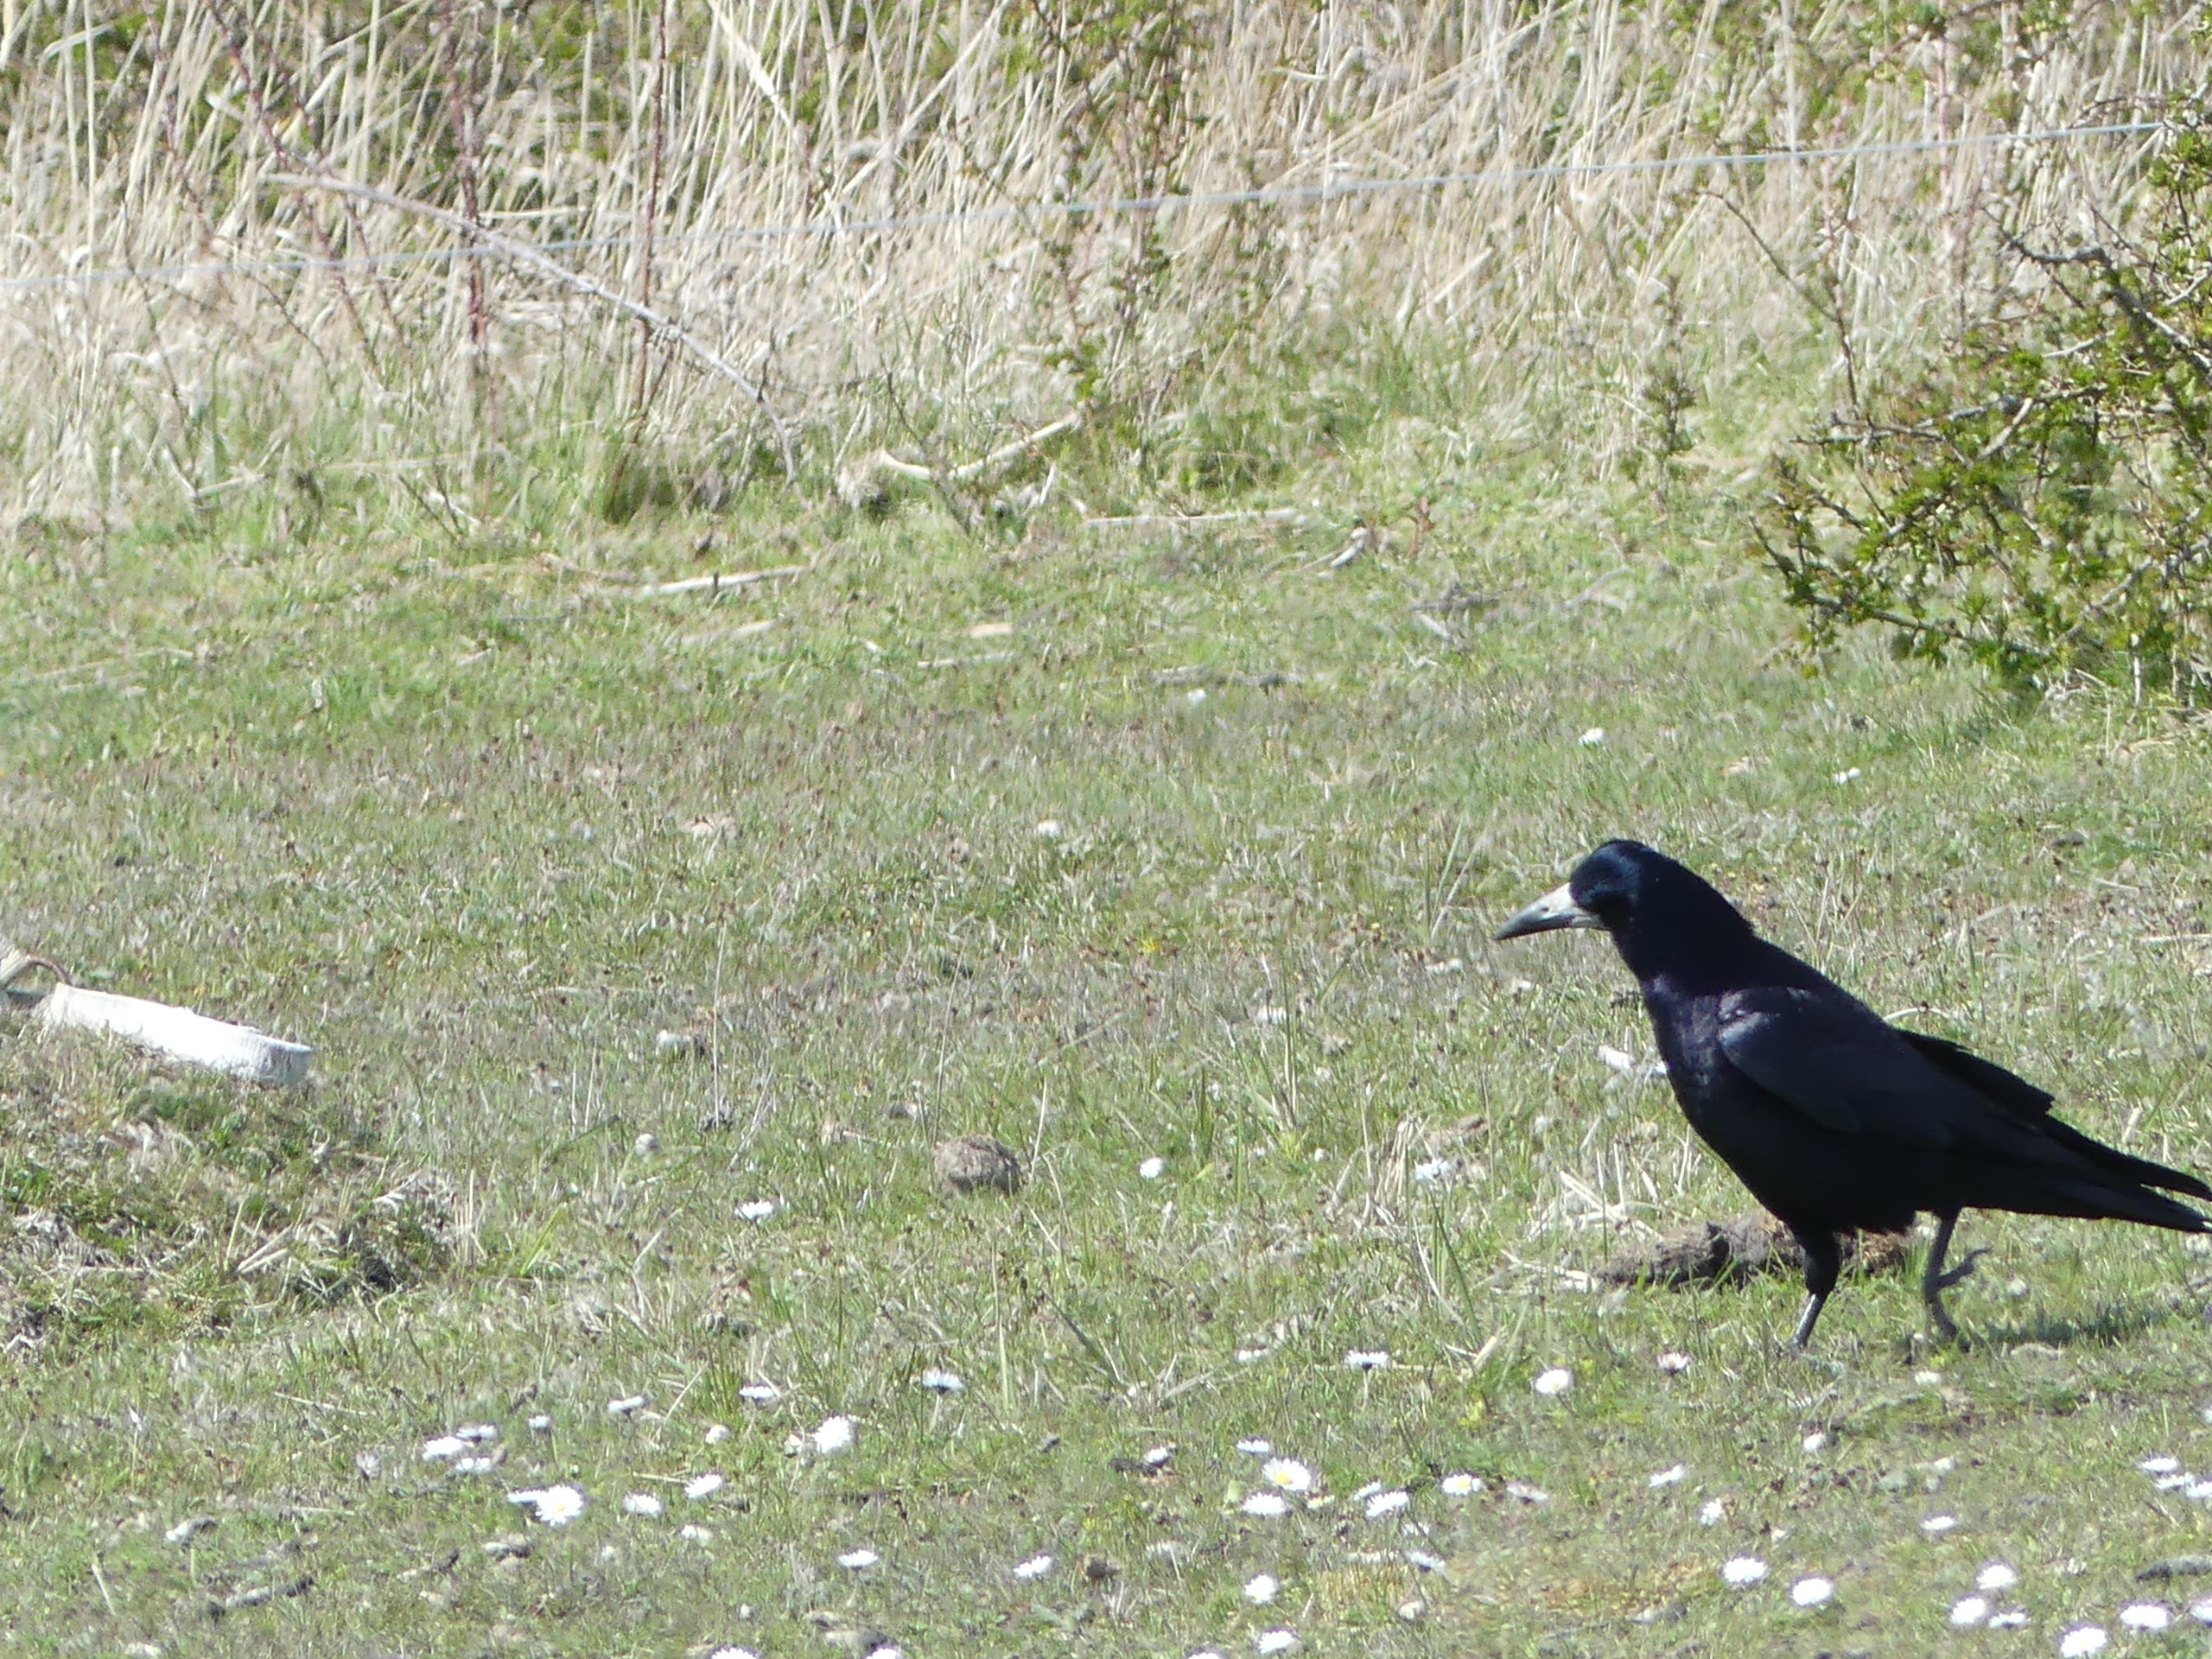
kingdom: Animalia
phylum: Chordata
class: Aves
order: Passeriformes
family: Corvidae
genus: Corvus
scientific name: Corvus frugilegus
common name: Råge
